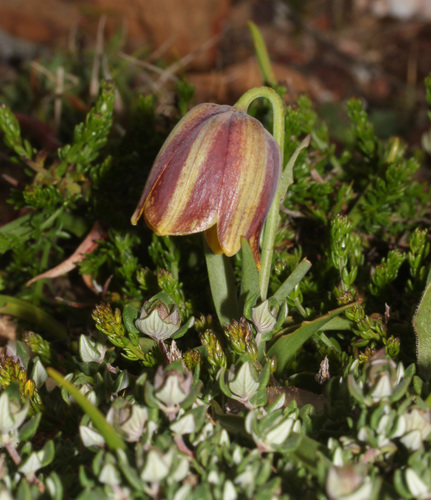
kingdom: Plantae
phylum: Tracheophyta
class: Liliopsida
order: Liliales
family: Liliaceae
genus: Fritillaria
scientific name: Fritillaria lusitanica
